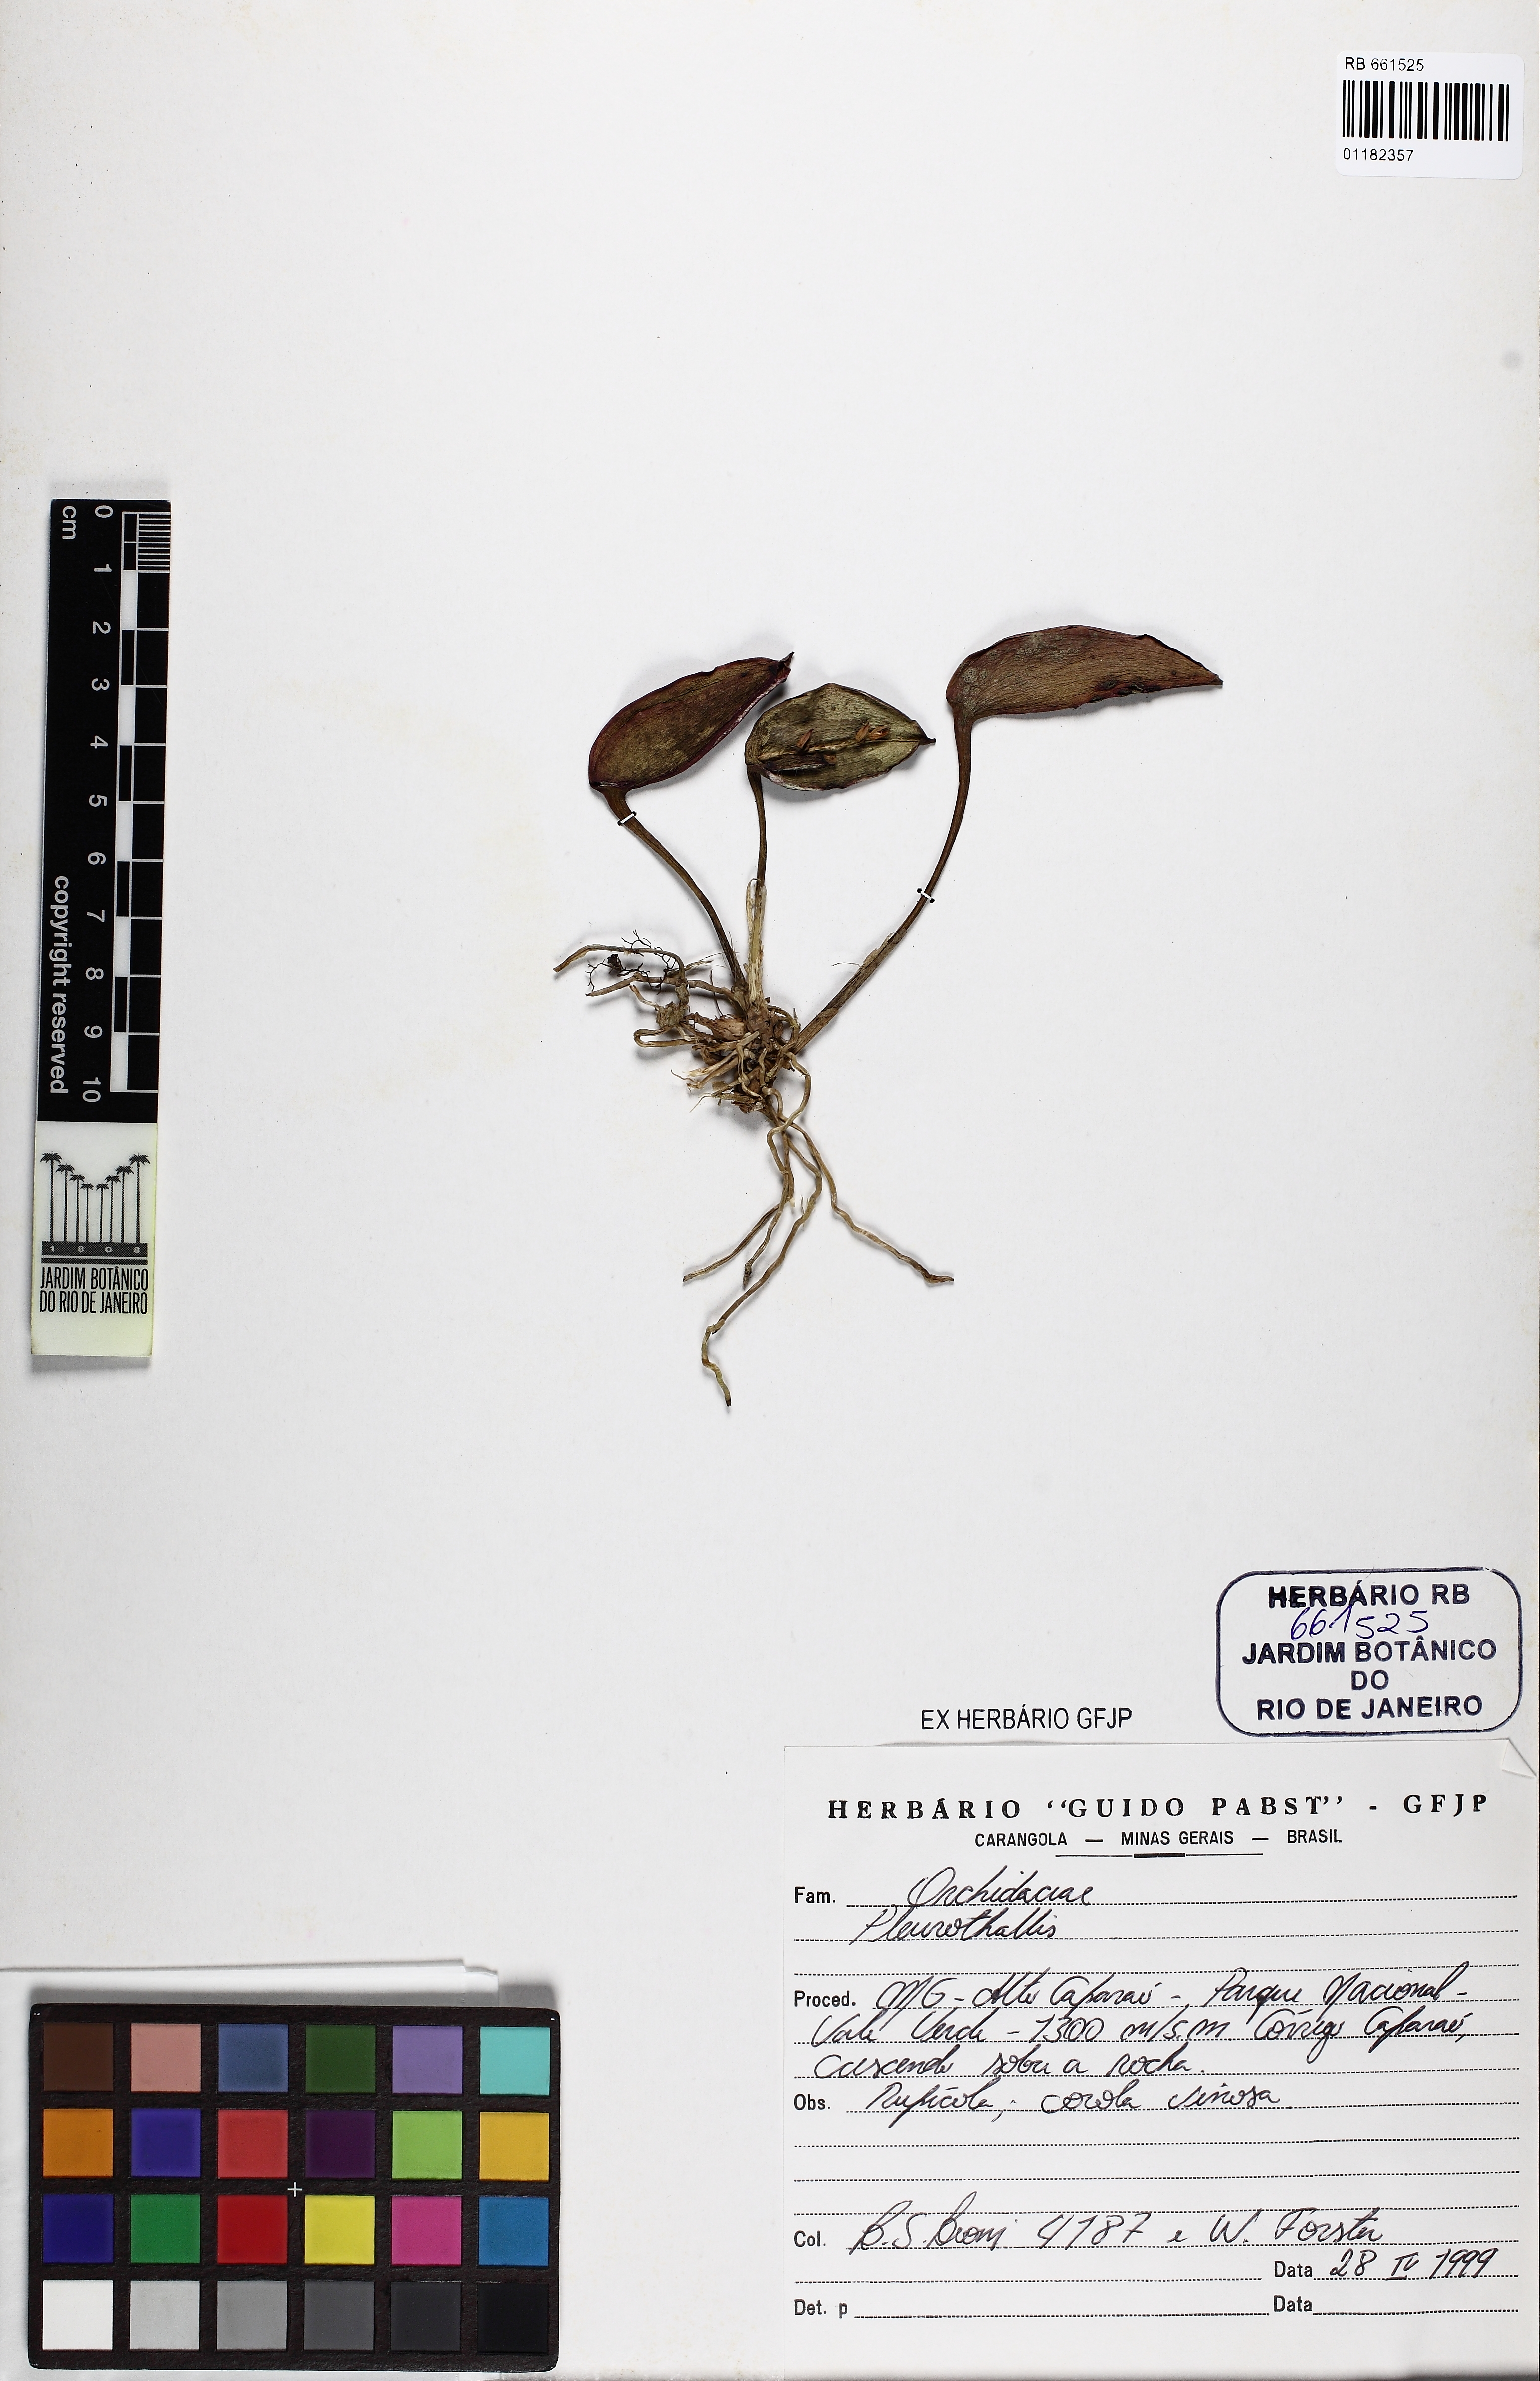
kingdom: Plantae
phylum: Tracheophyta
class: Liliopsida
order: Asparagales
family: Orchidaceae
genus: Acianthera
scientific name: Acianthera
